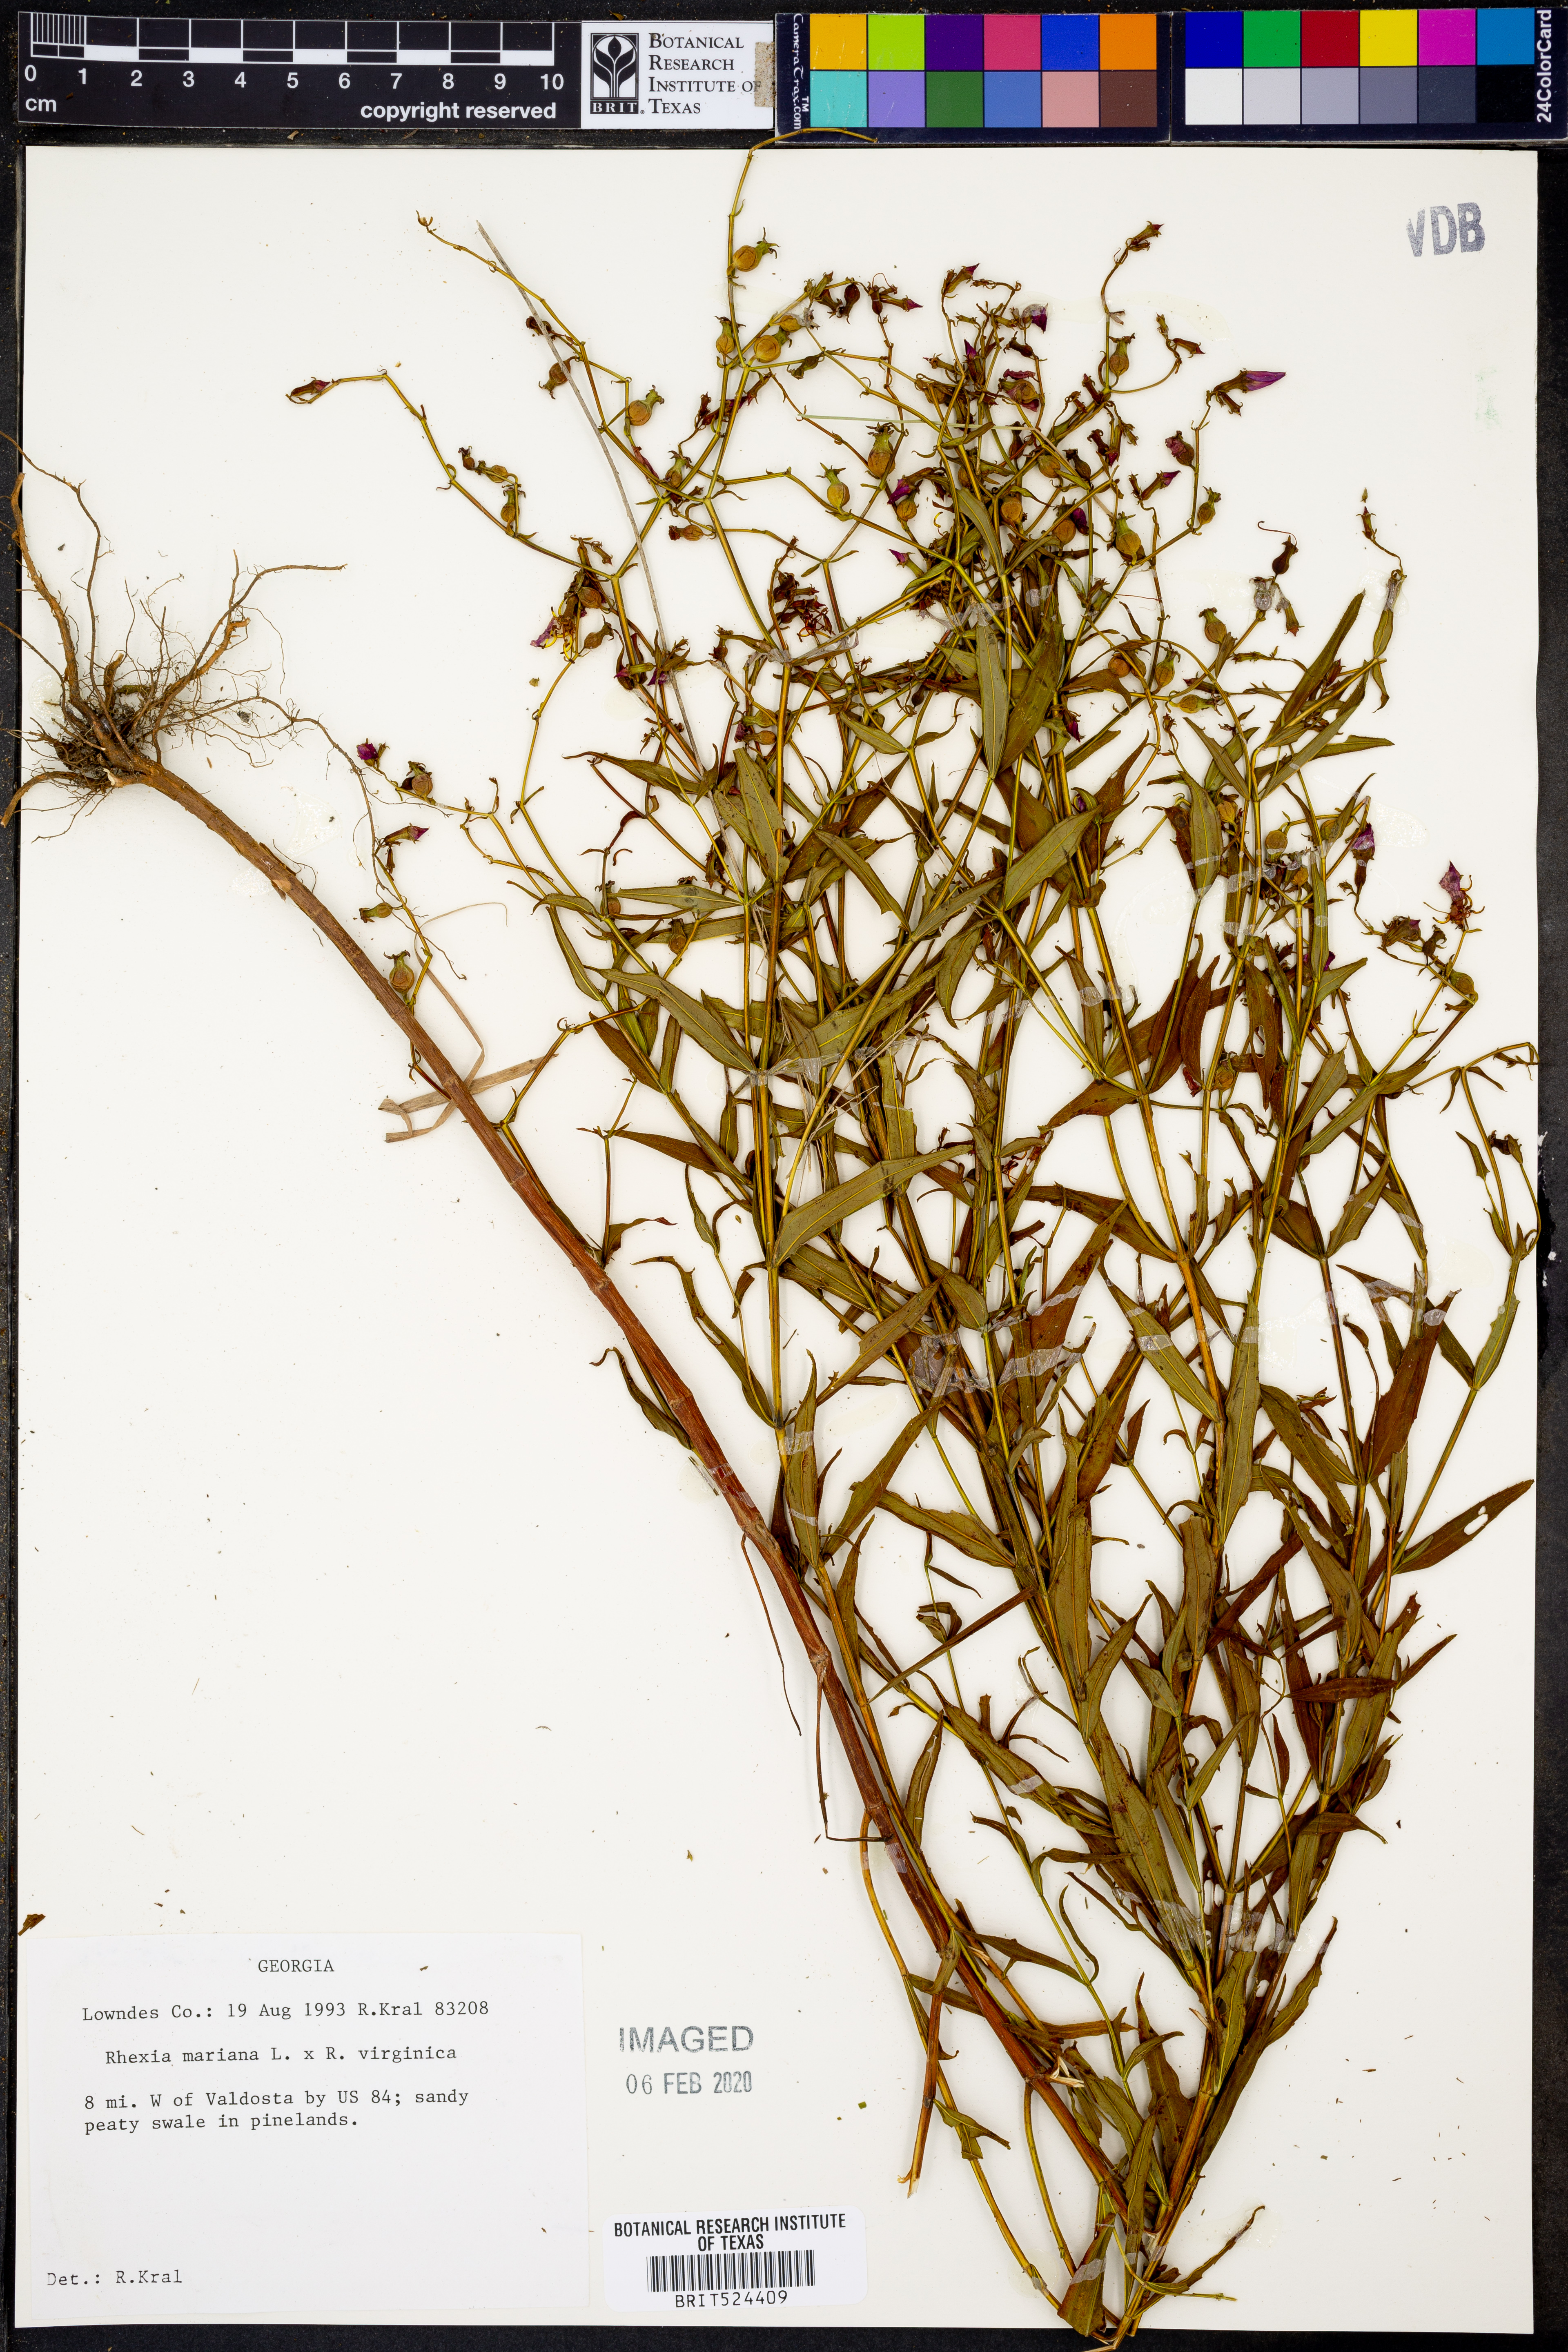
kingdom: Plantae
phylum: Tracheophyta
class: Magnoliopsida
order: Myrtales
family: Melastomataceae
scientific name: Melastomataceae
